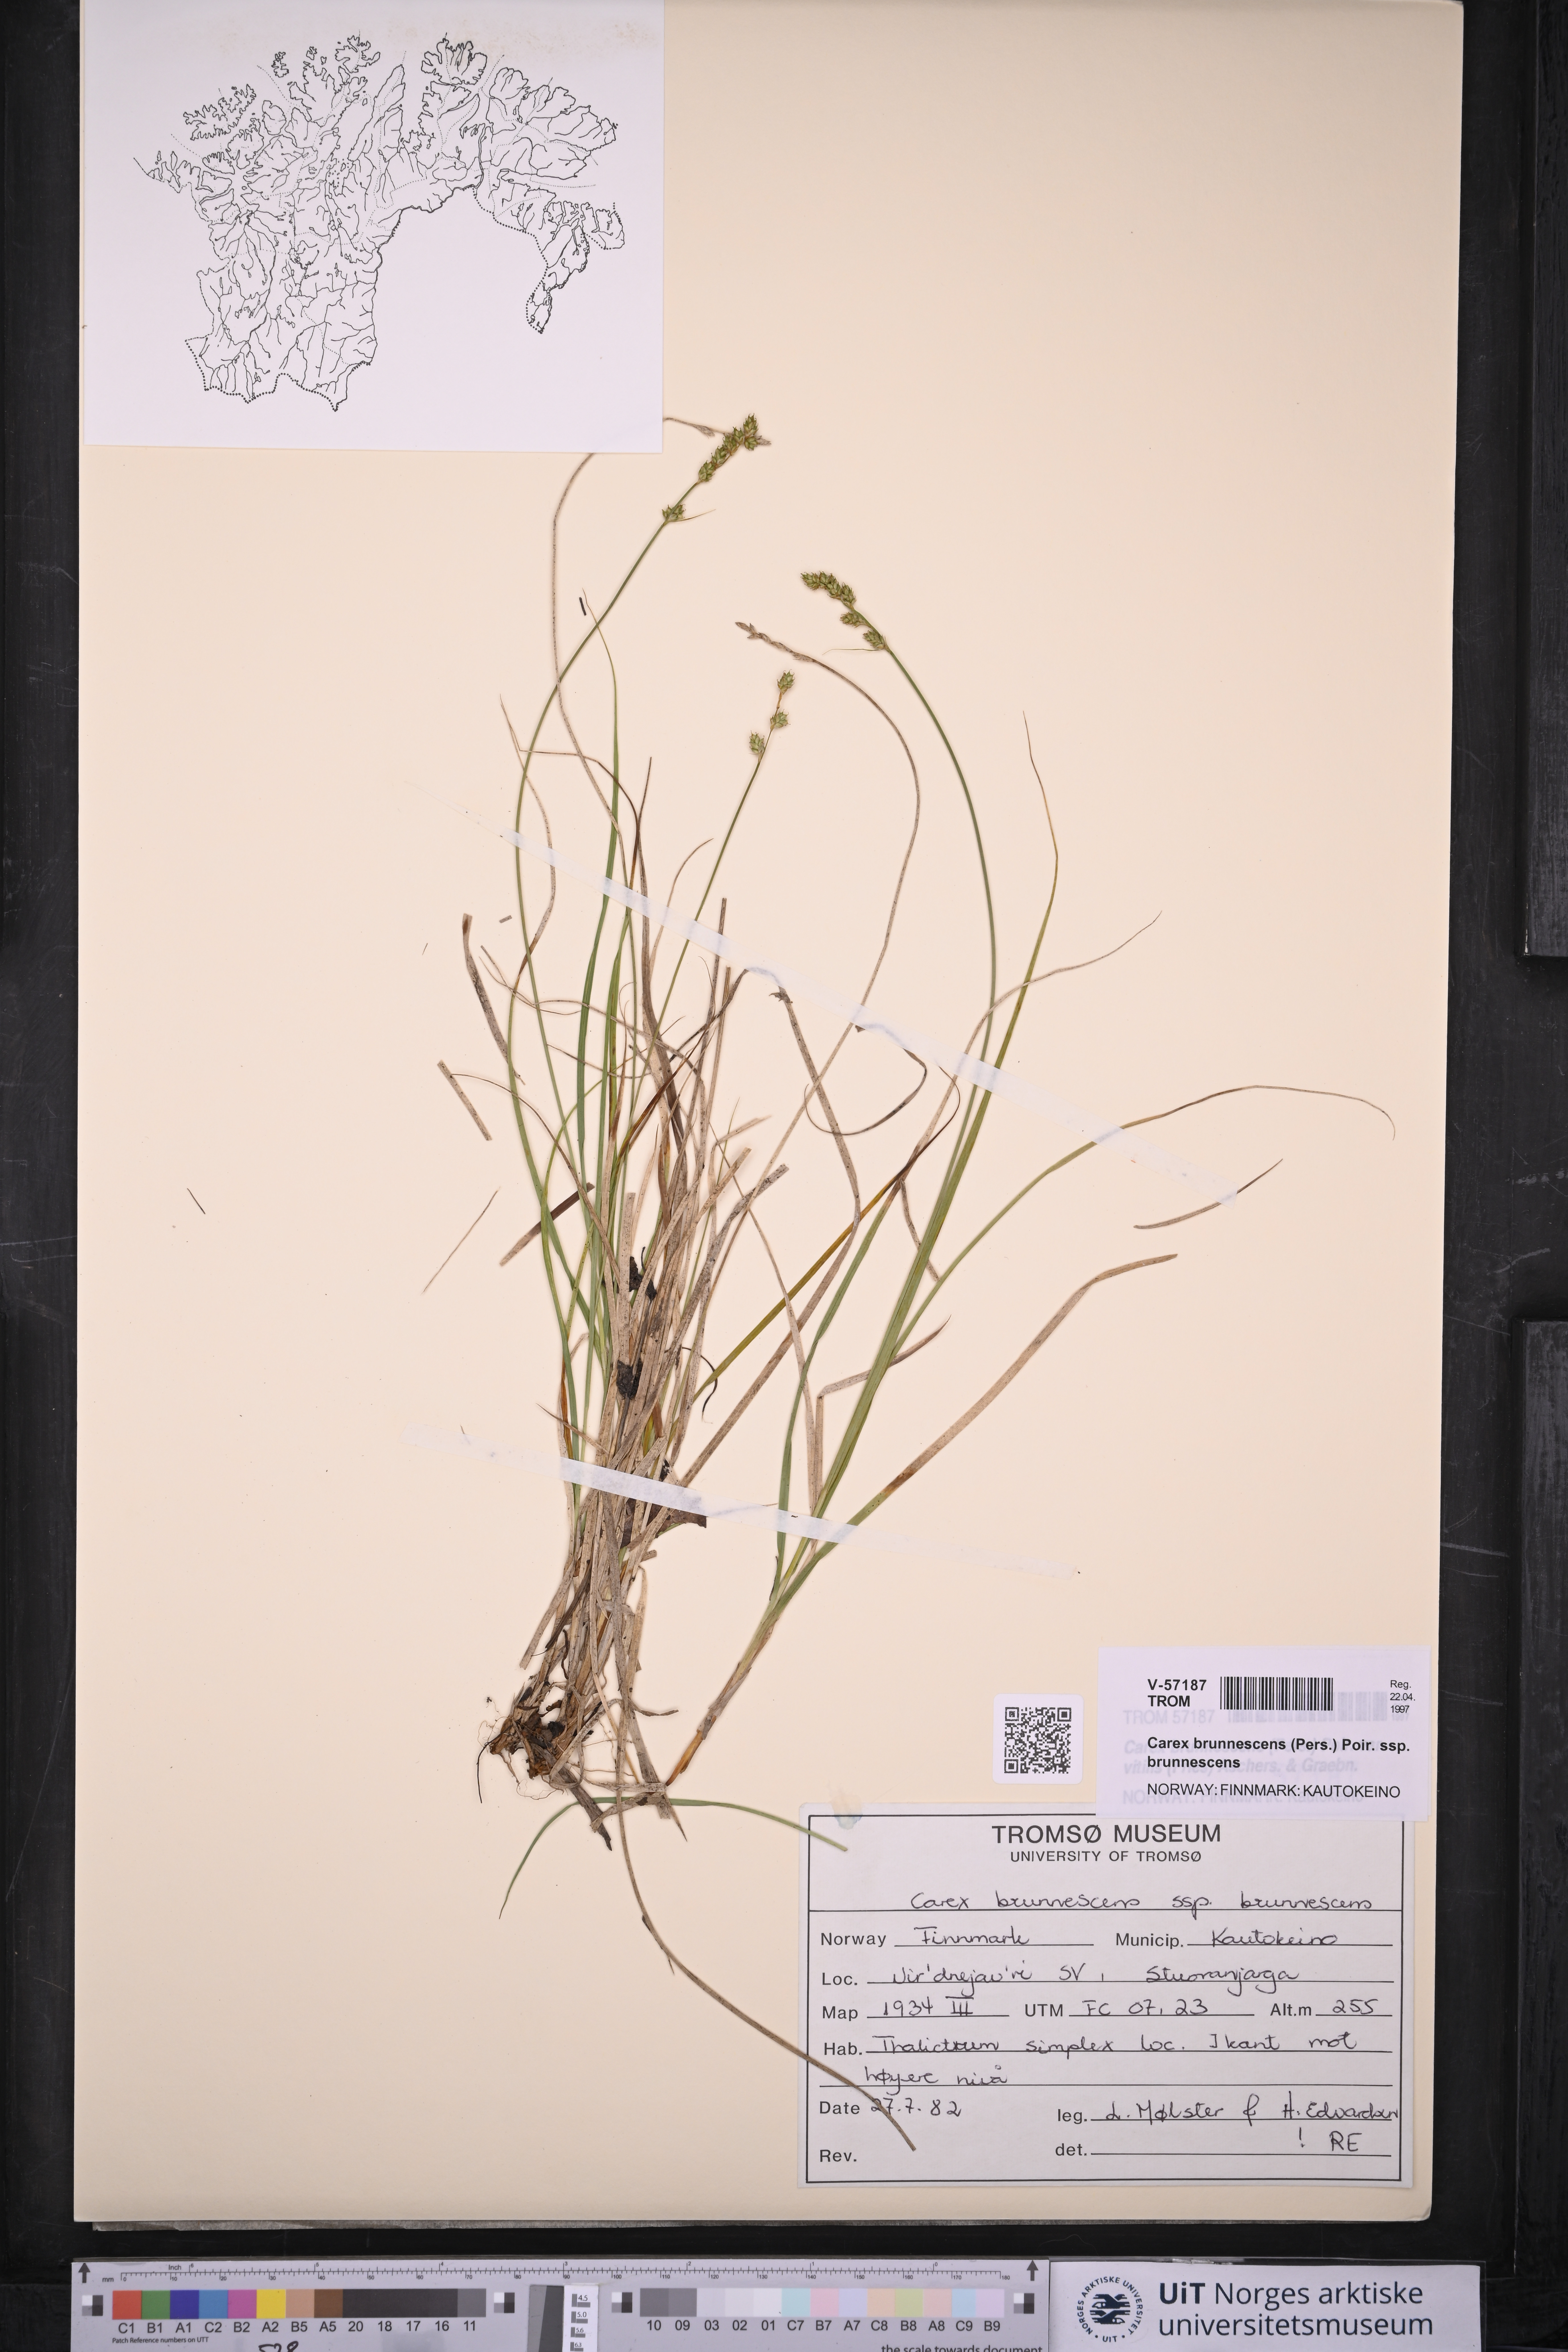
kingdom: Plantae
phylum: Tracheophyta
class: Liliopsida
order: Poales
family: Cyperaceae
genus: Carex
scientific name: Carex brunnescens
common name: Brown sedge
